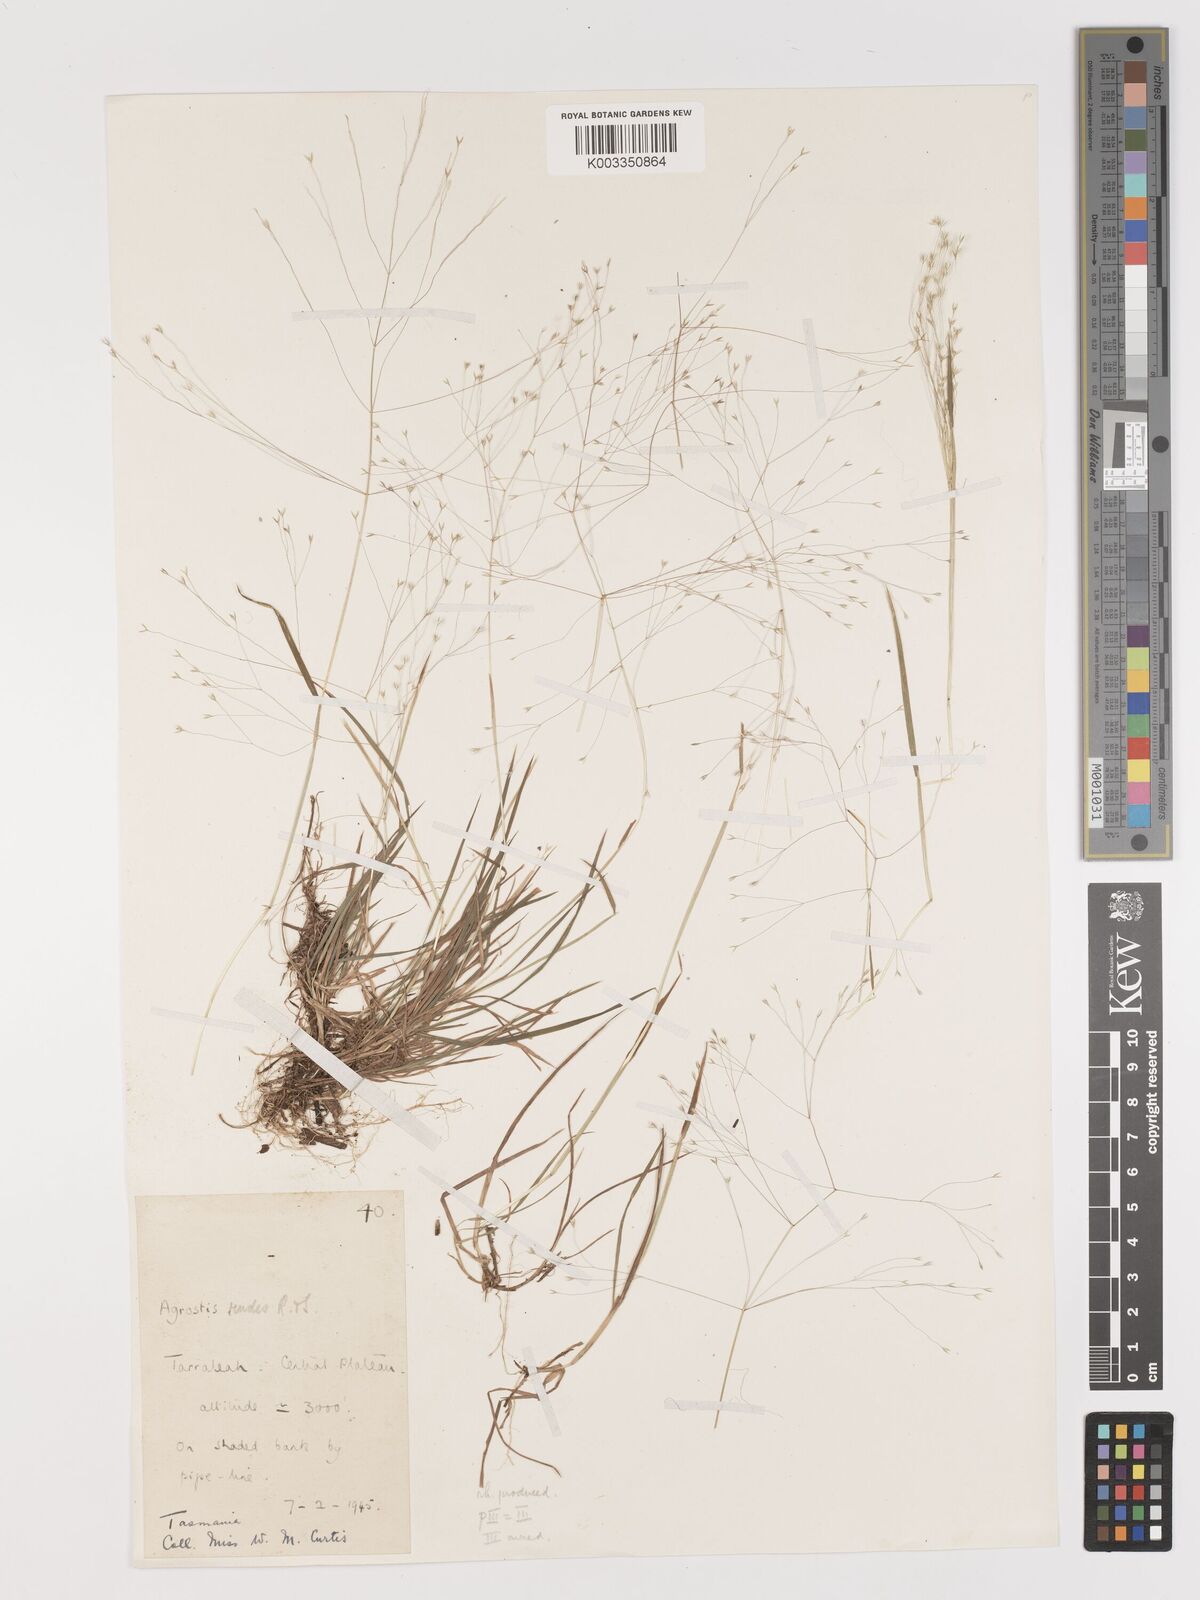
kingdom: Plantae
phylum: Tracheophyta
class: Liliopsida
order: Poales
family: Poaceae
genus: Lachnagrostis
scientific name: Lachnagrostis rudis
